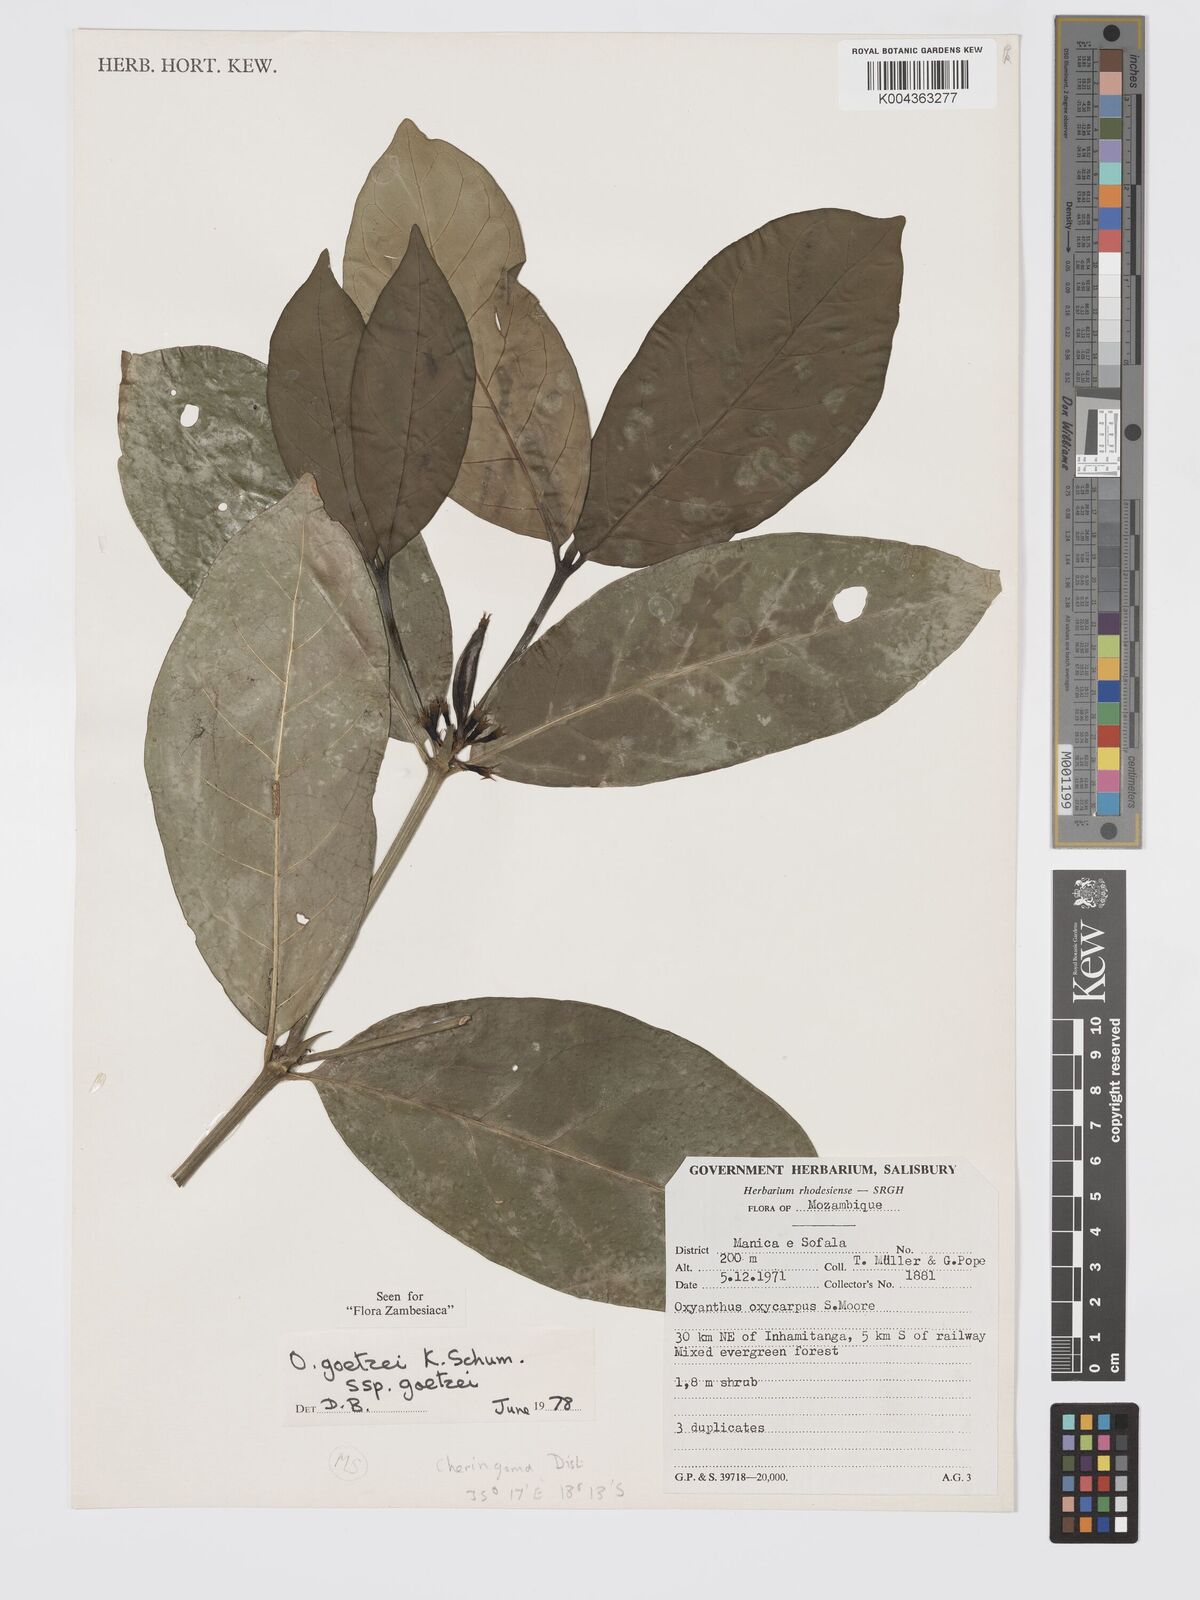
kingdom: Plantae
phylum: Tracheophyta
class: Magnoliopsida
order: Gentianales
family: Rubiaceae
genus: Oxyanthus
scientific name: Oxyanthus goetzei
